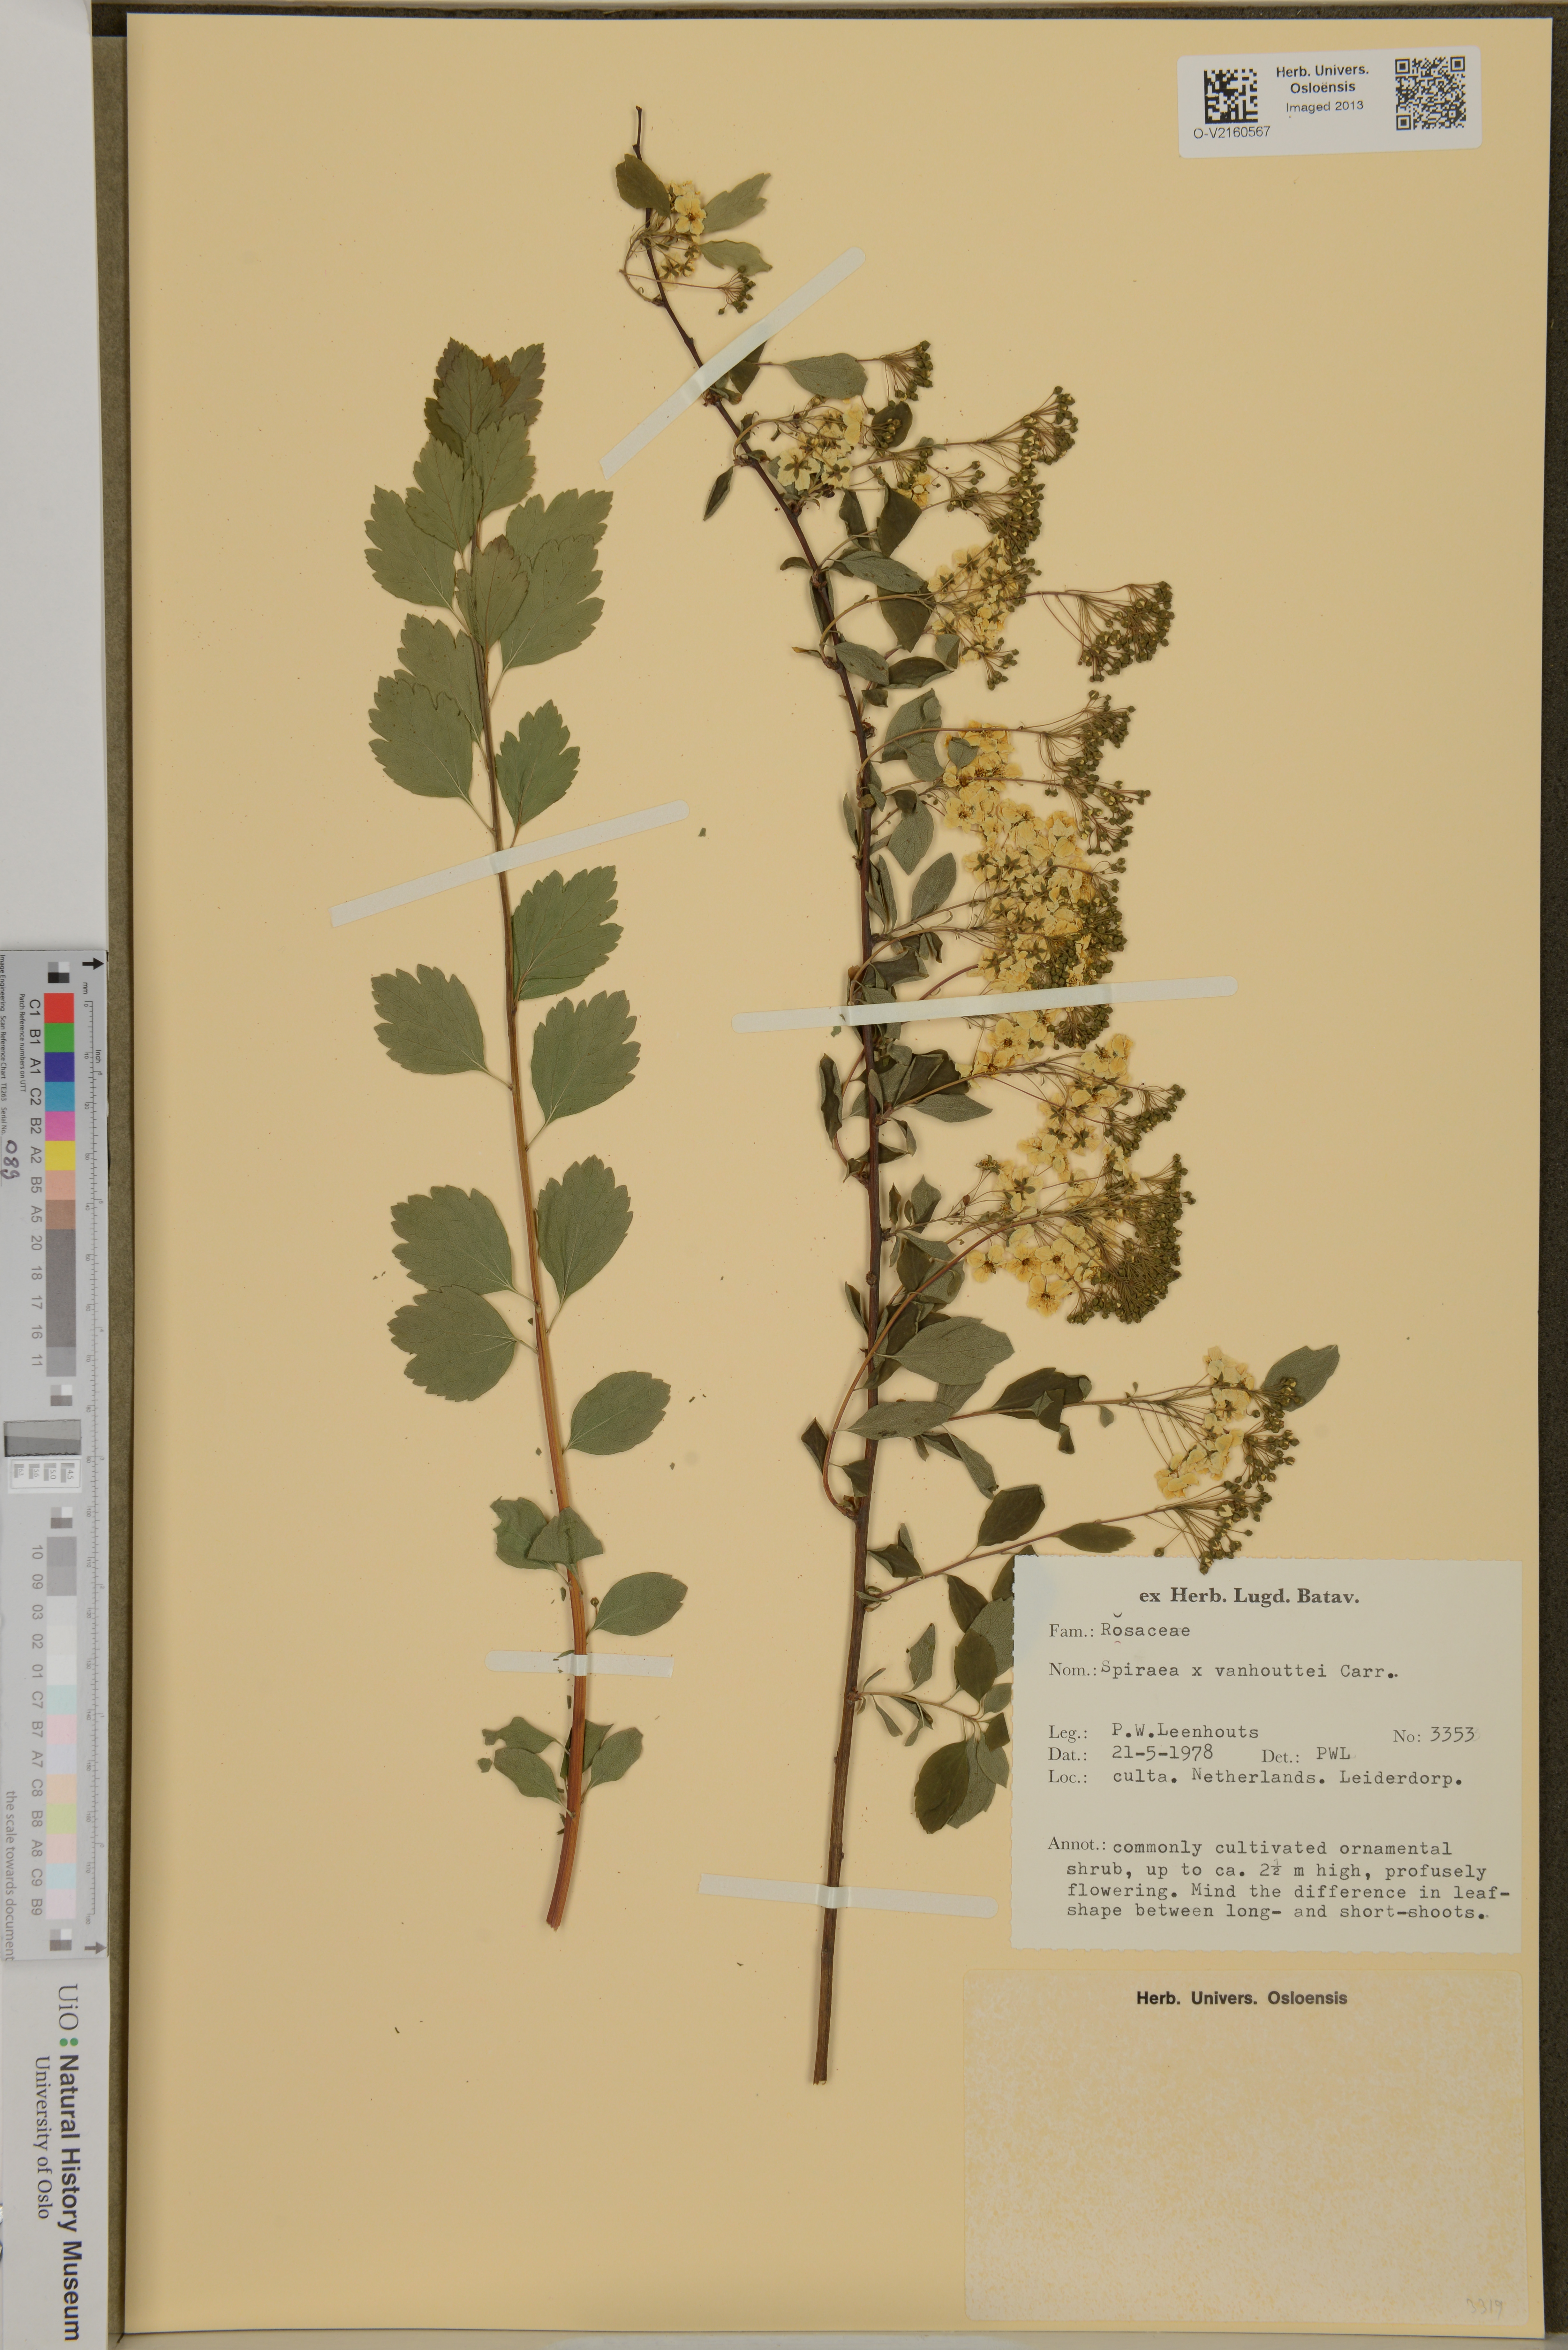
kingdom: Plantae
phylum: Tracheophyta
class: Magnoliopsida
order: Rosales
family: Rosaceae
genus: Spiraea
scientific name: Spiraea vanhouttei
